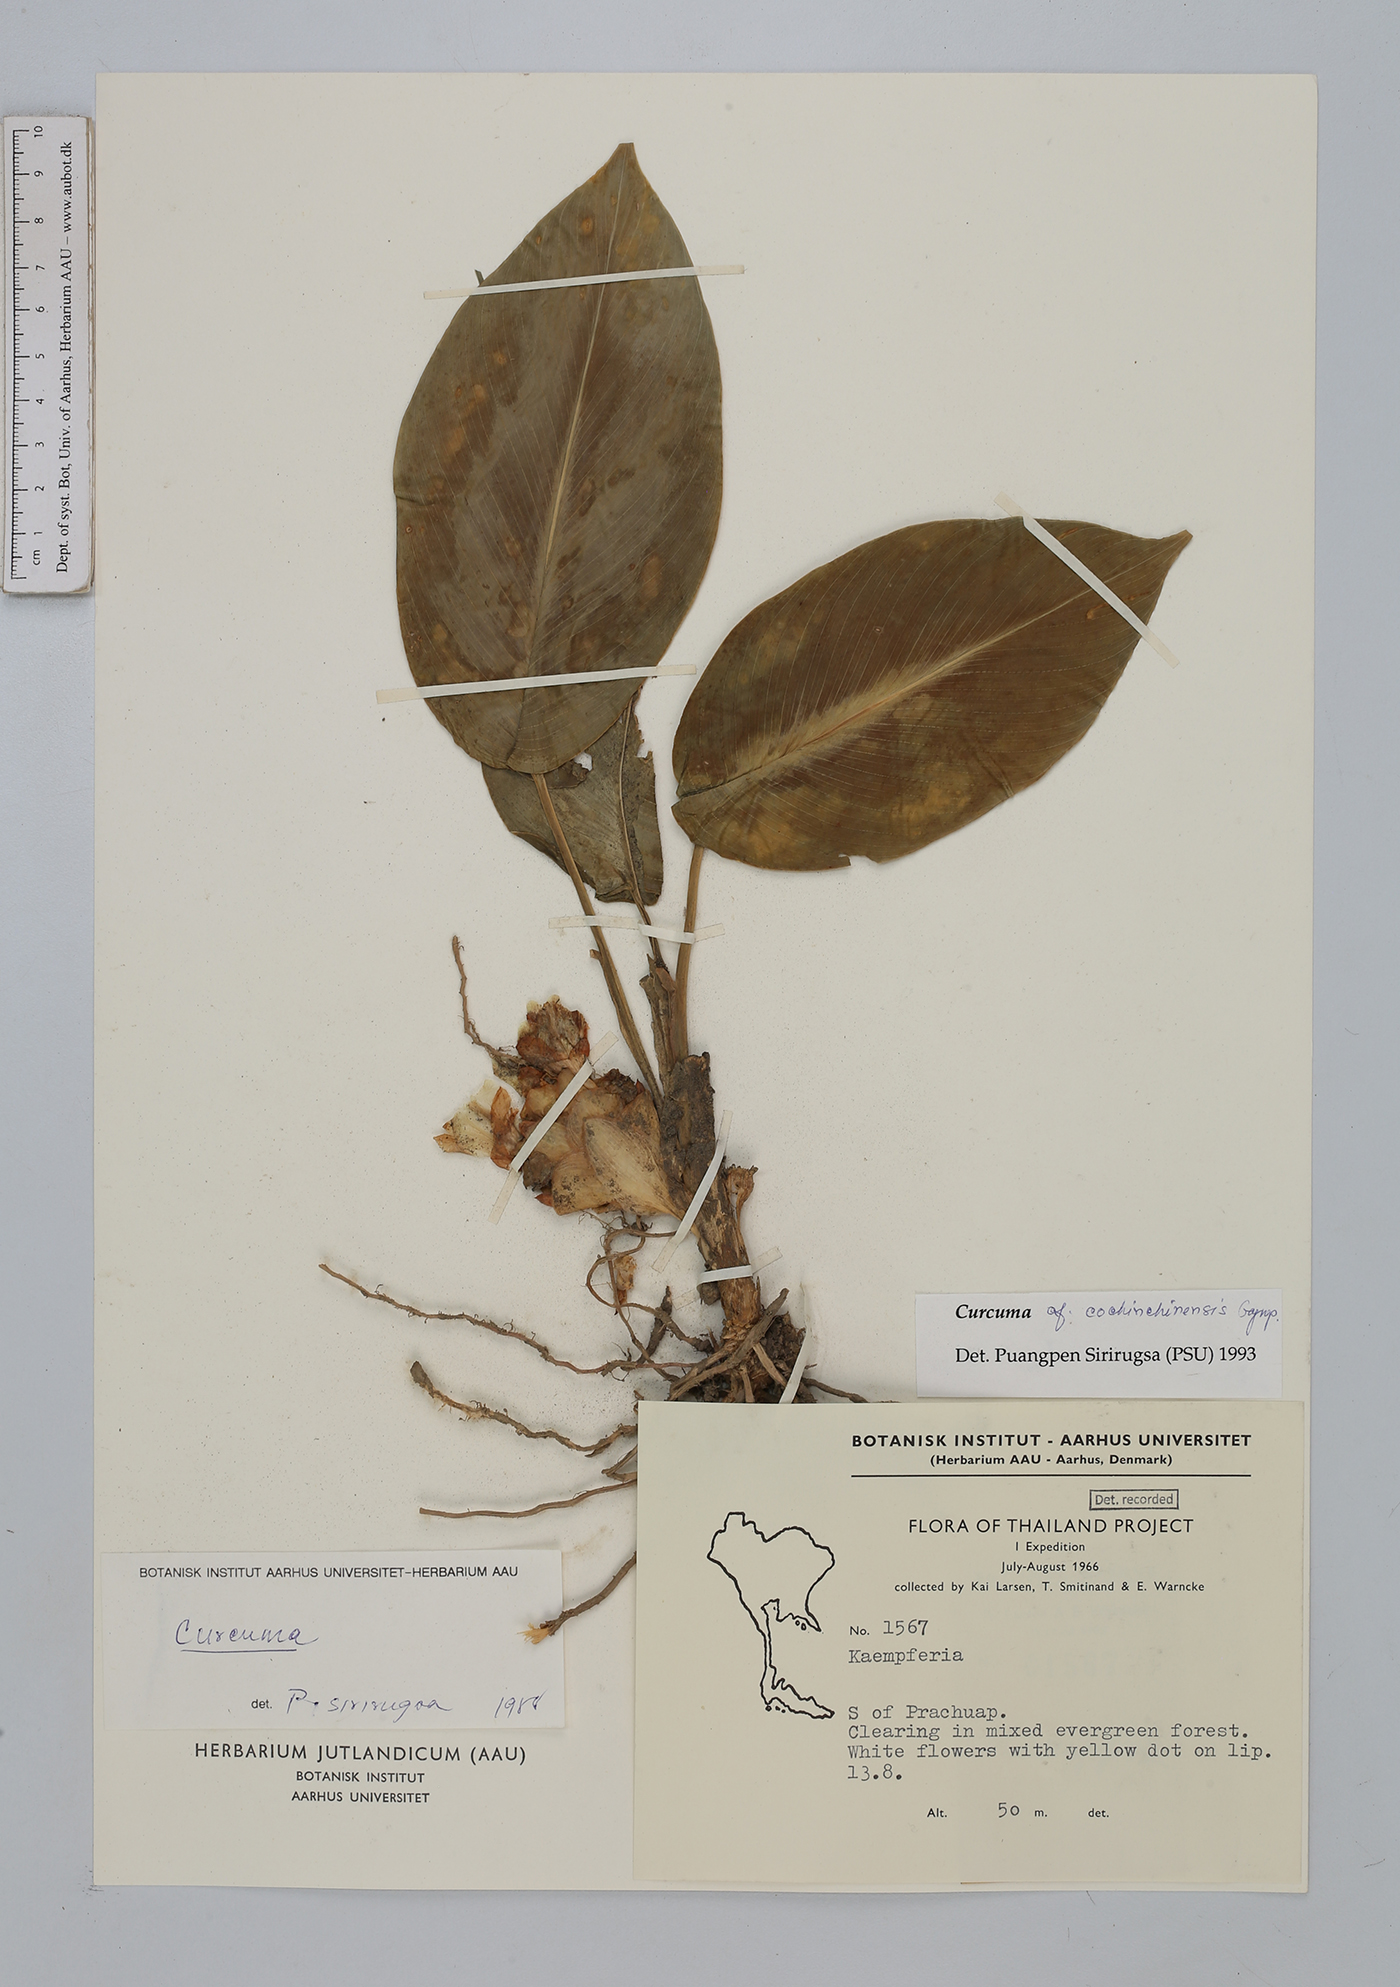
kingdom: Plantae
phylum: Tracheophyta
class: Liliopsida
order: Zingiberales
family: Zingiberaceae
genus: Curcuma
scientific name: Curcuma
